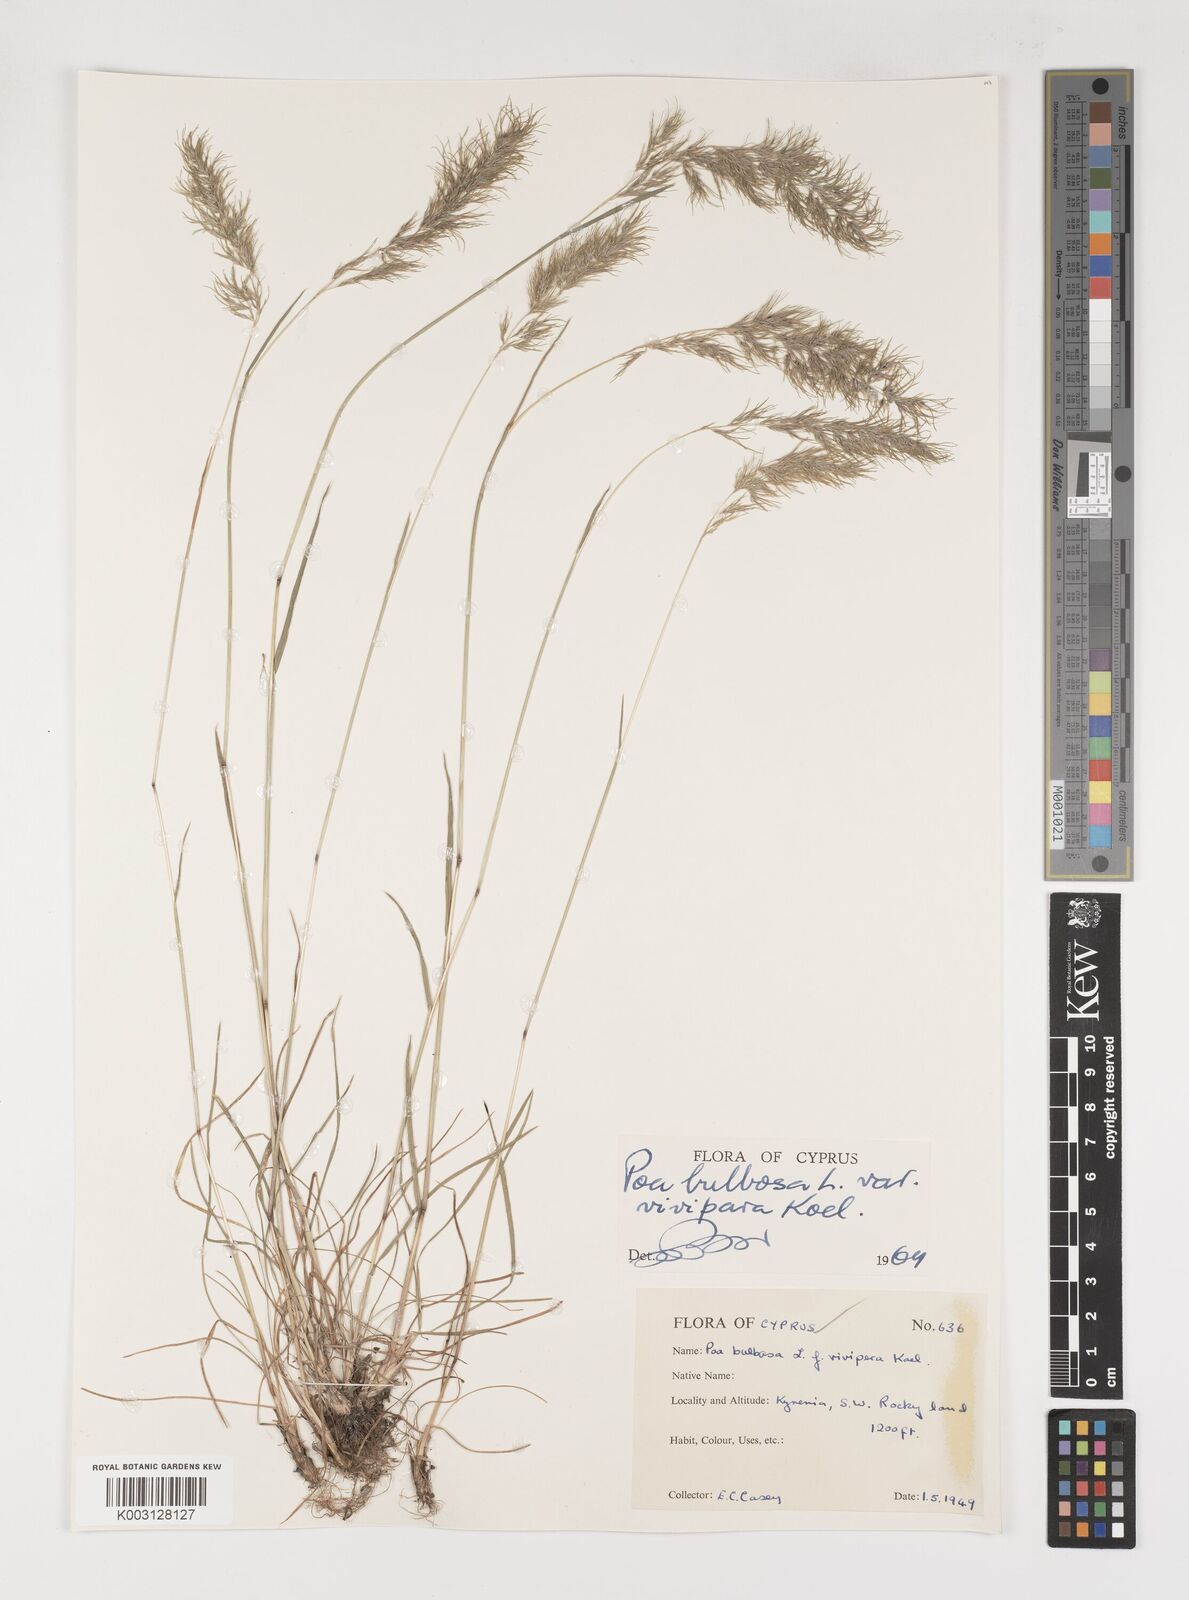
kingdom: Plantae
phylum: Tracheophyta
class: Liliopsida
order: Poales
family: Poaceae
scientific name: Poaceae
